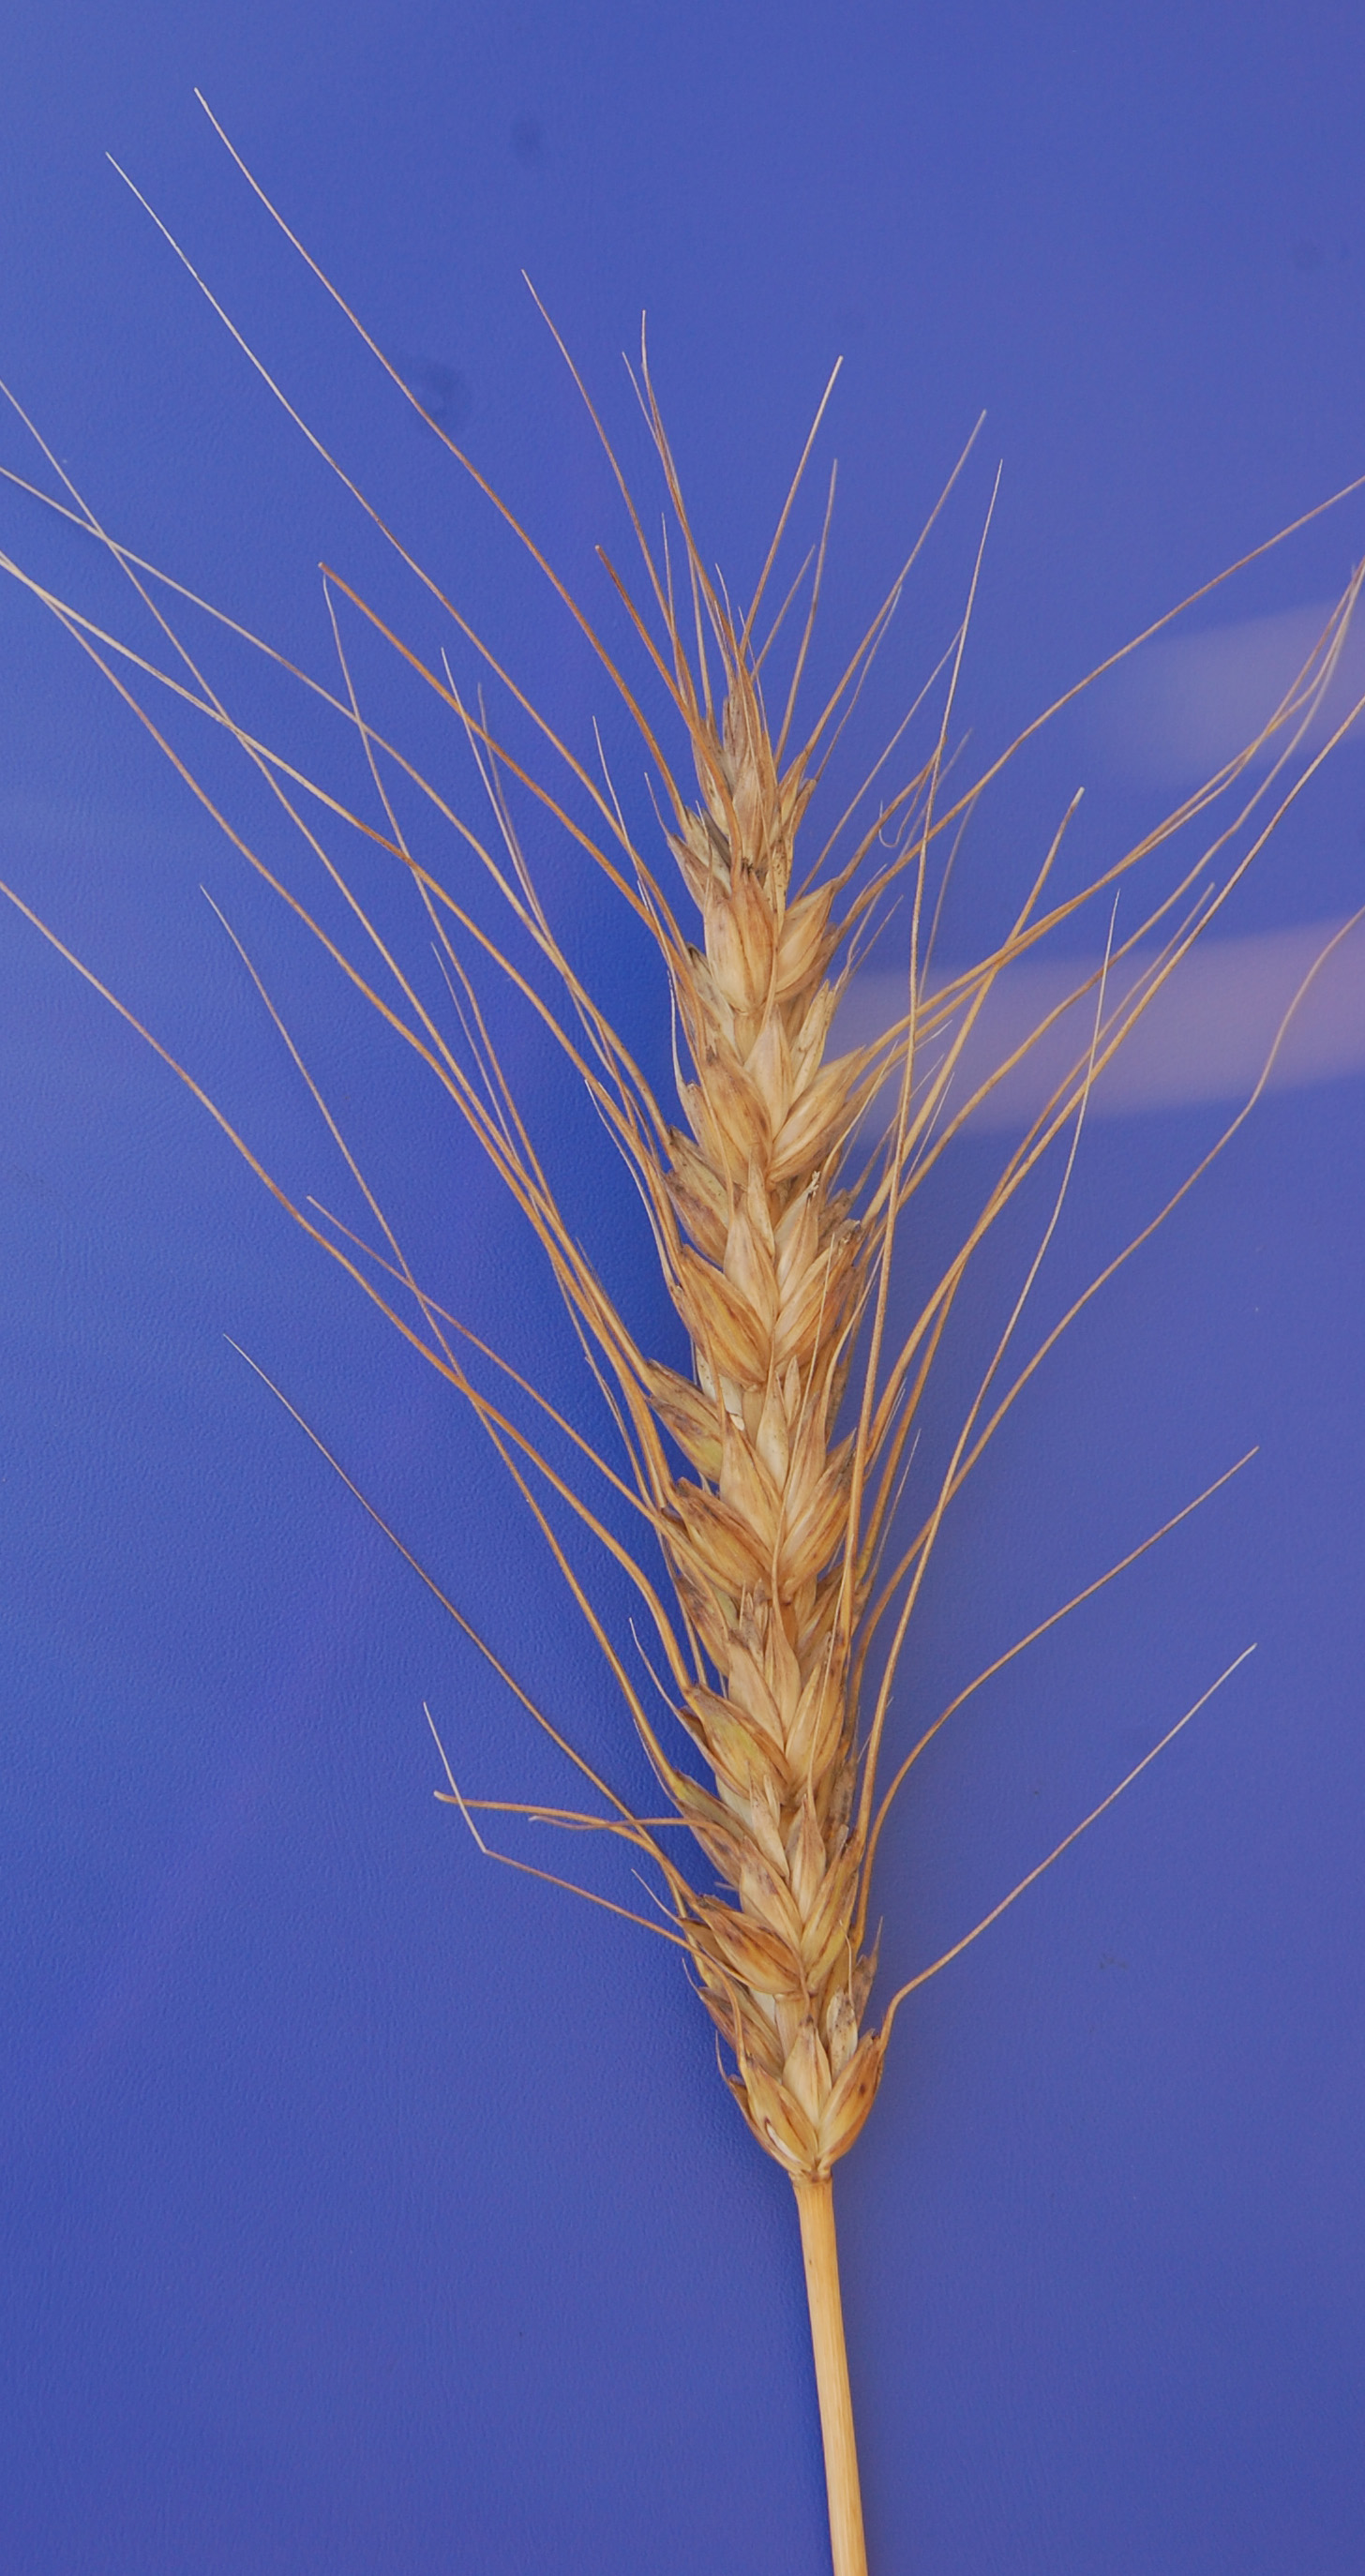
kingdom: Plantae
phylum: Tracheophyta
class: Liliopsida
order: Poales
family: Poaceae
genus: Triticum
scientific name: Triticum aestivum
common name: Common wheat
